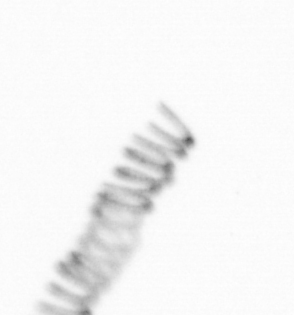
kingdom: Chromista
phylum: Ochrophyta
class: Bacillariophyceae
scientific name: Bacillariophyceae
